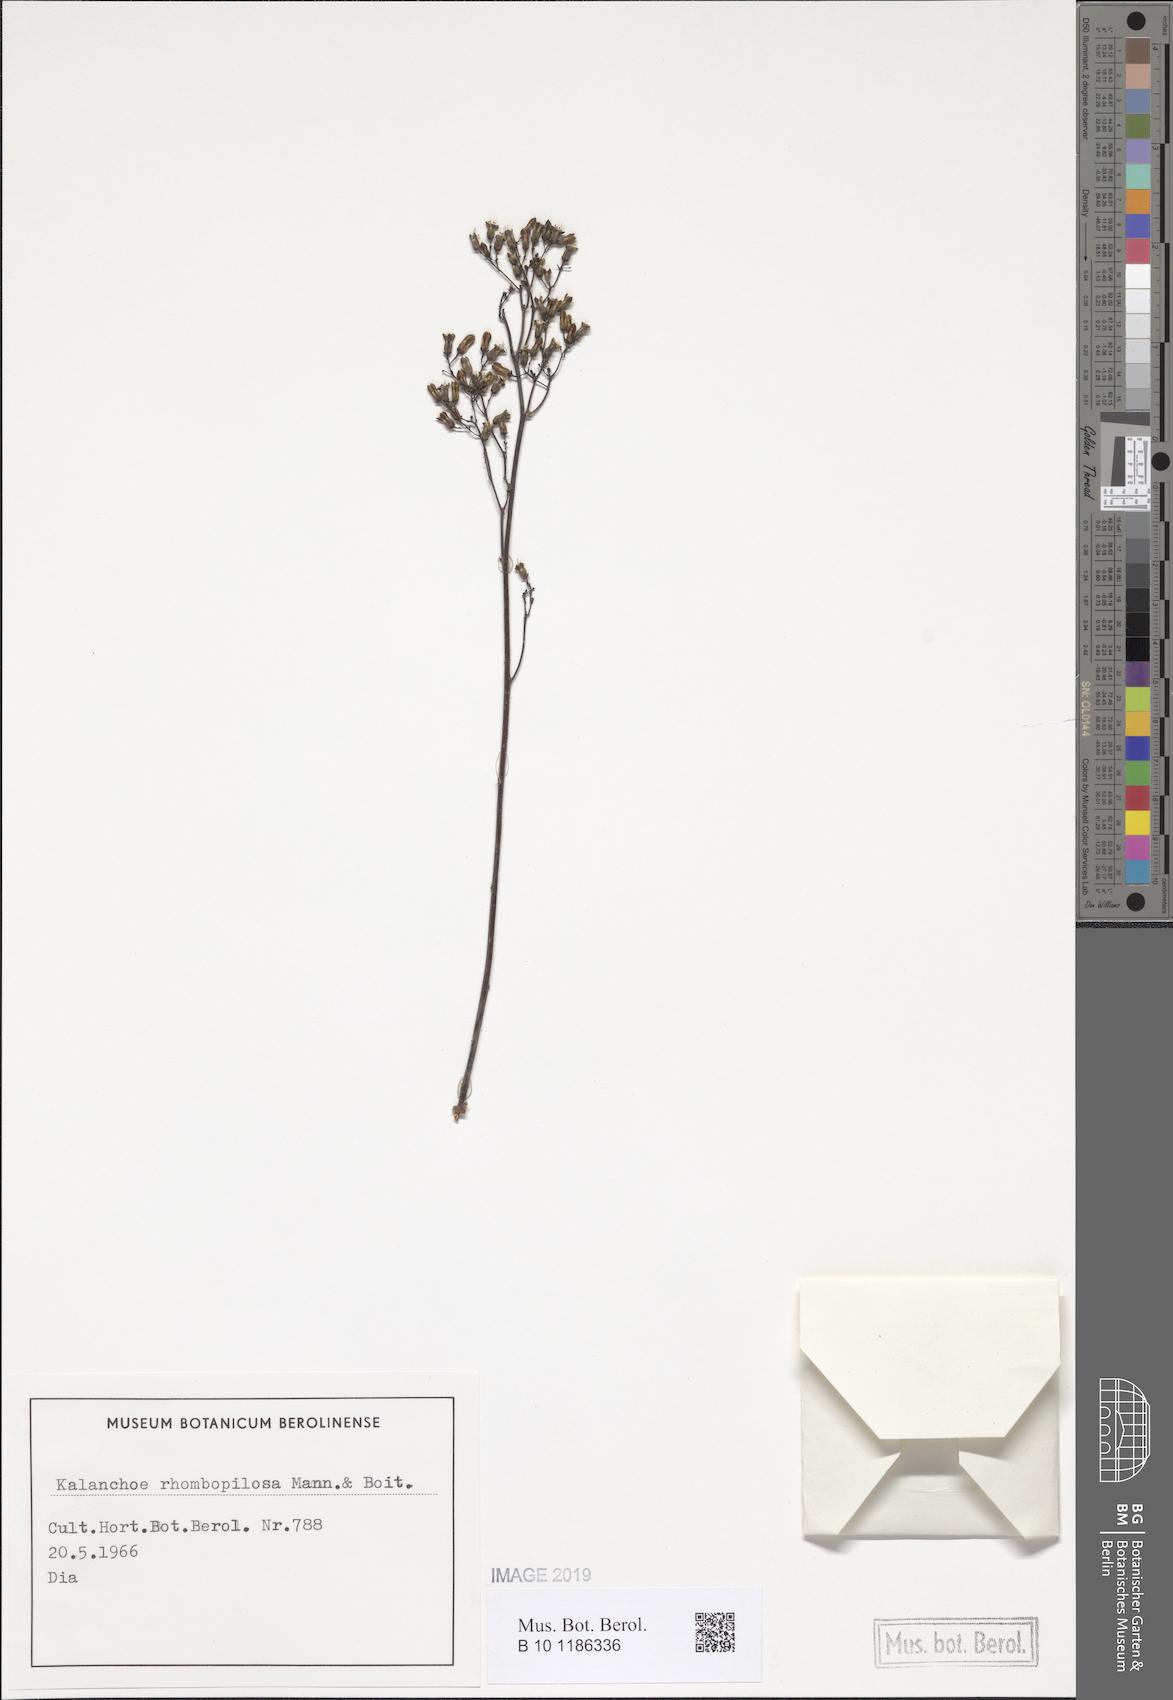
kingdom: Plantae
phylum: Tracheophyta
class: Magnoliopsida
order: Saxifragales
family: Crassulaceae
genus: Kalanchoe
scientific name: Kalanchoe rhombopilosa
